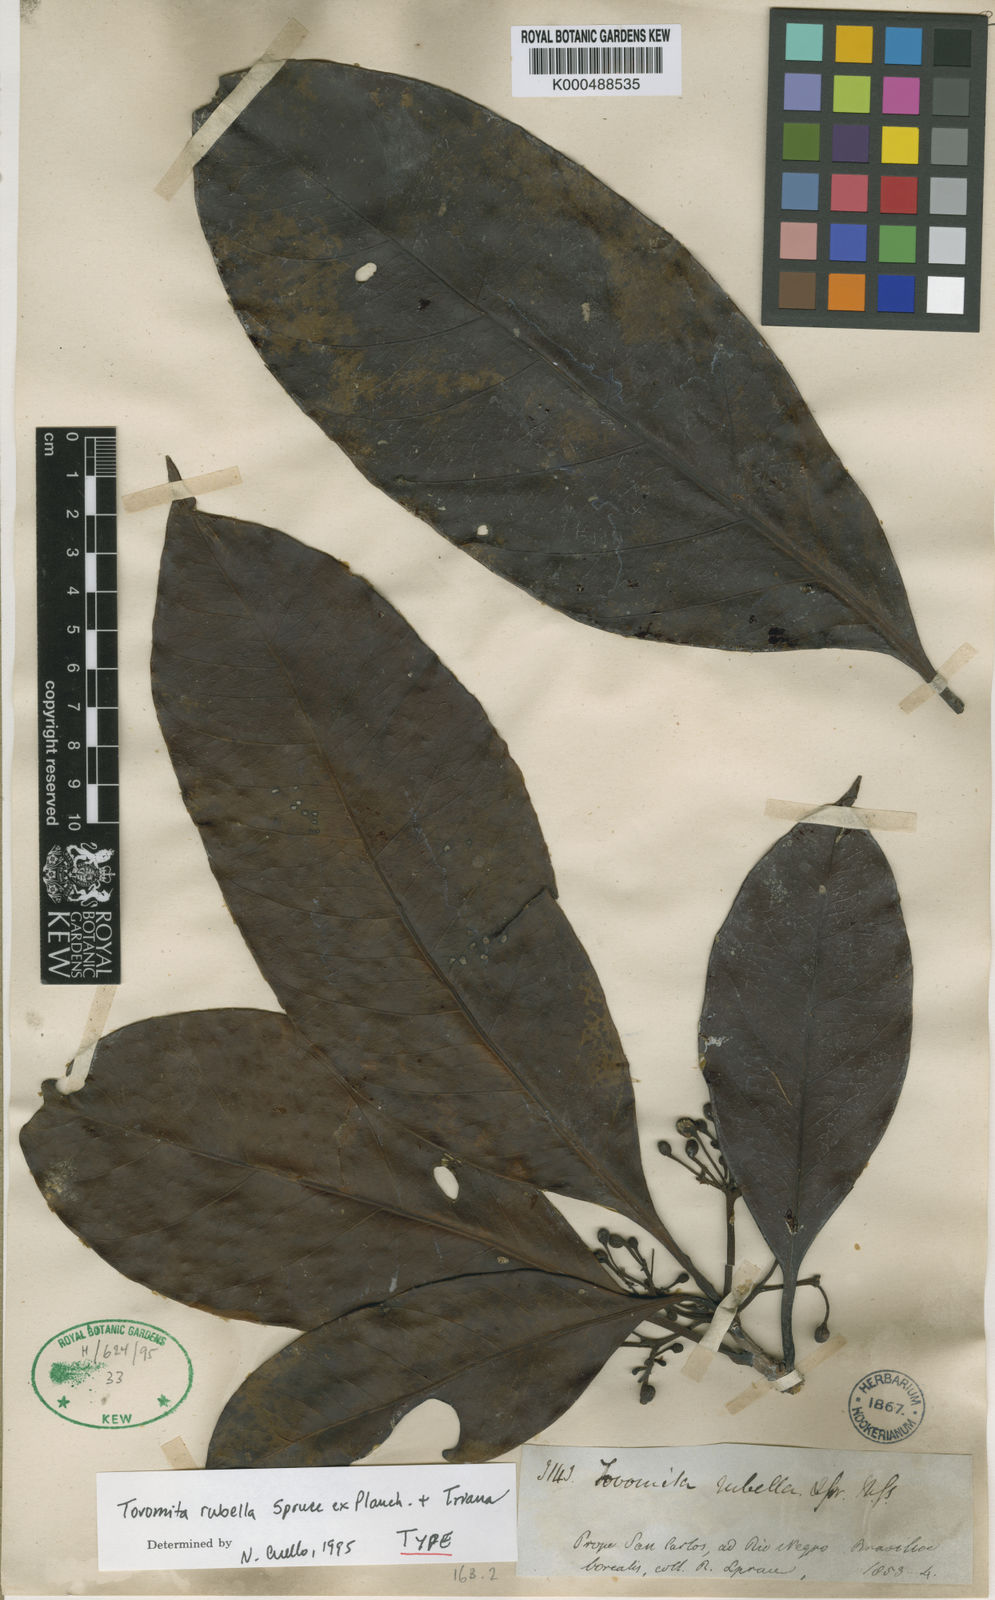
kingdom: Plantae
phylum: Tracheophyta
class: Magnoliopsida
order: Malpighiales
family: Clusiaceae
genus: Tovomita
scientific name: Tovomita rubella
